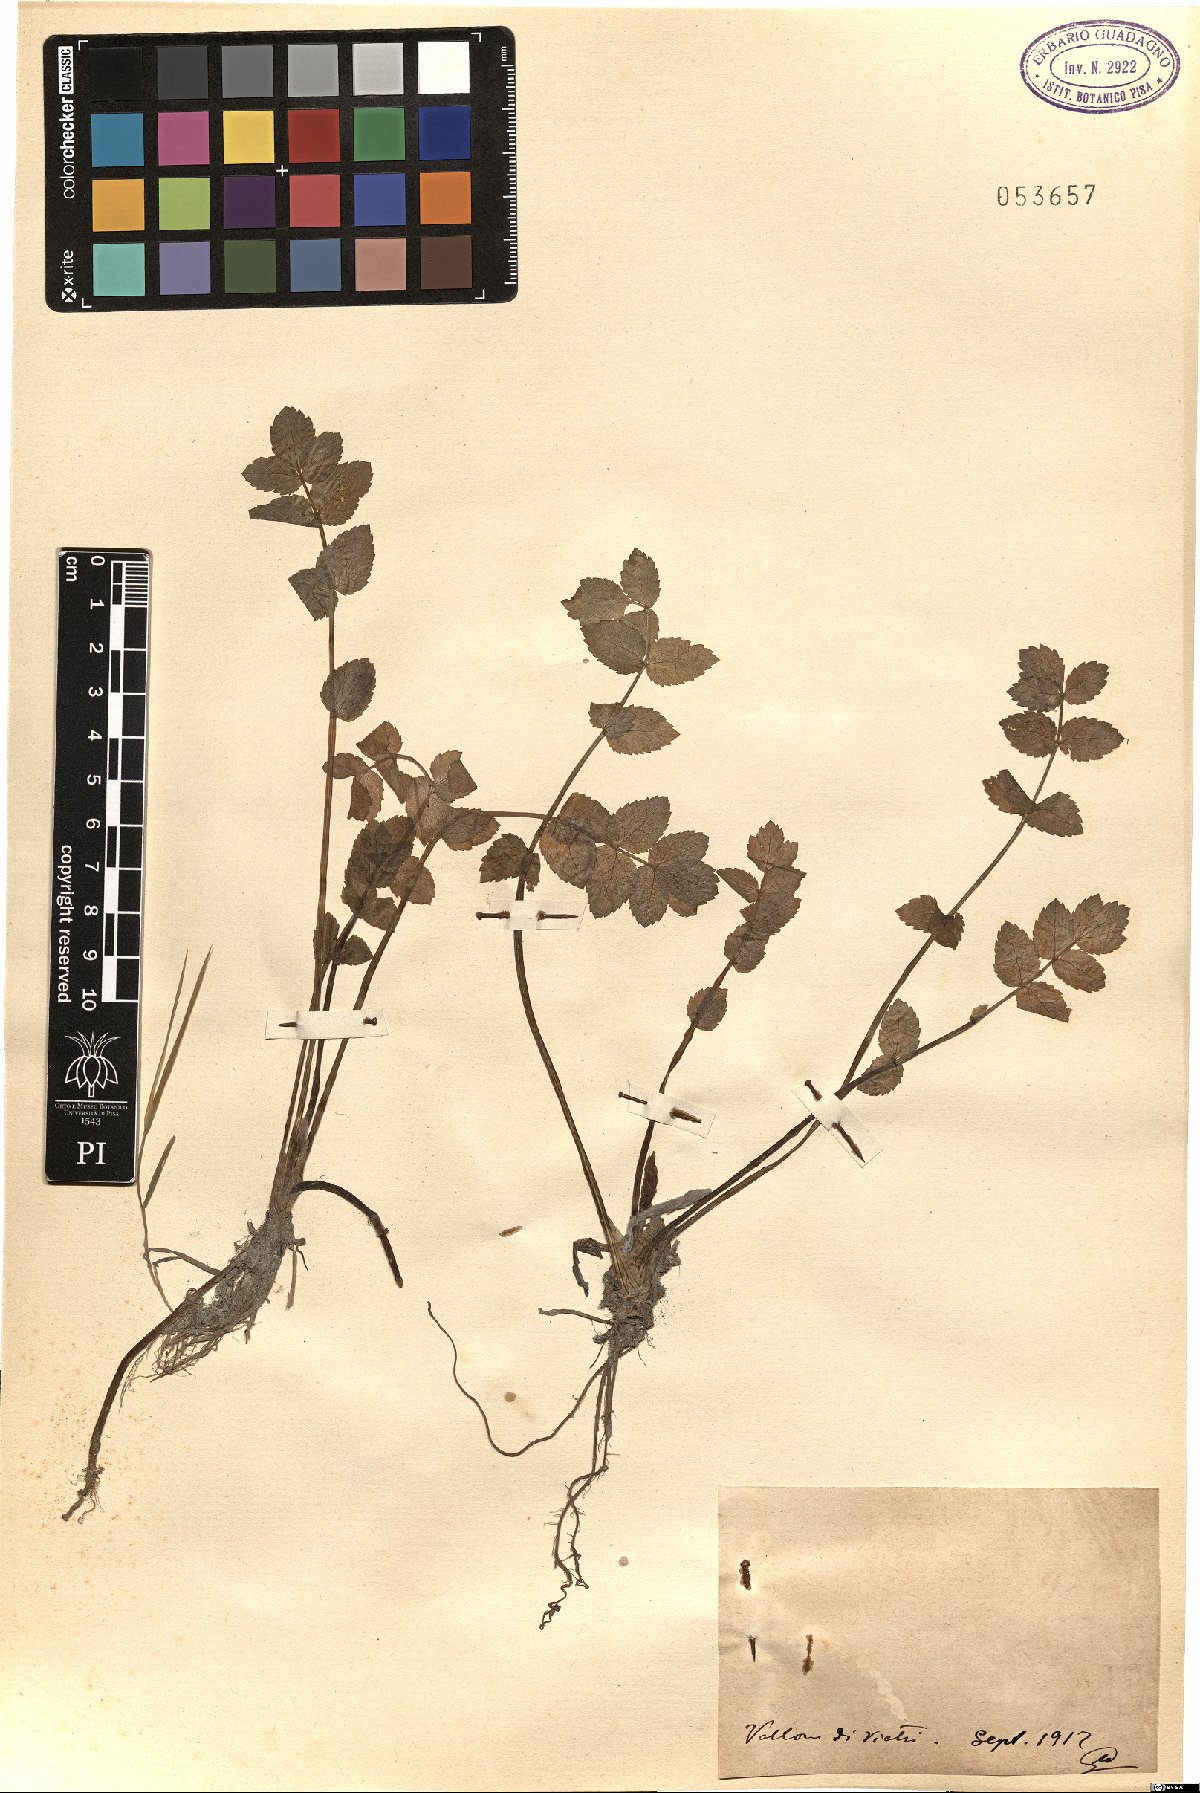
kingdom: Plantae
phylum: Tracheophyta
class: Magnoliopsida
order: Apiales
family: Apiaceae
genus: Helosciadium
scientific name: Helosciadium
